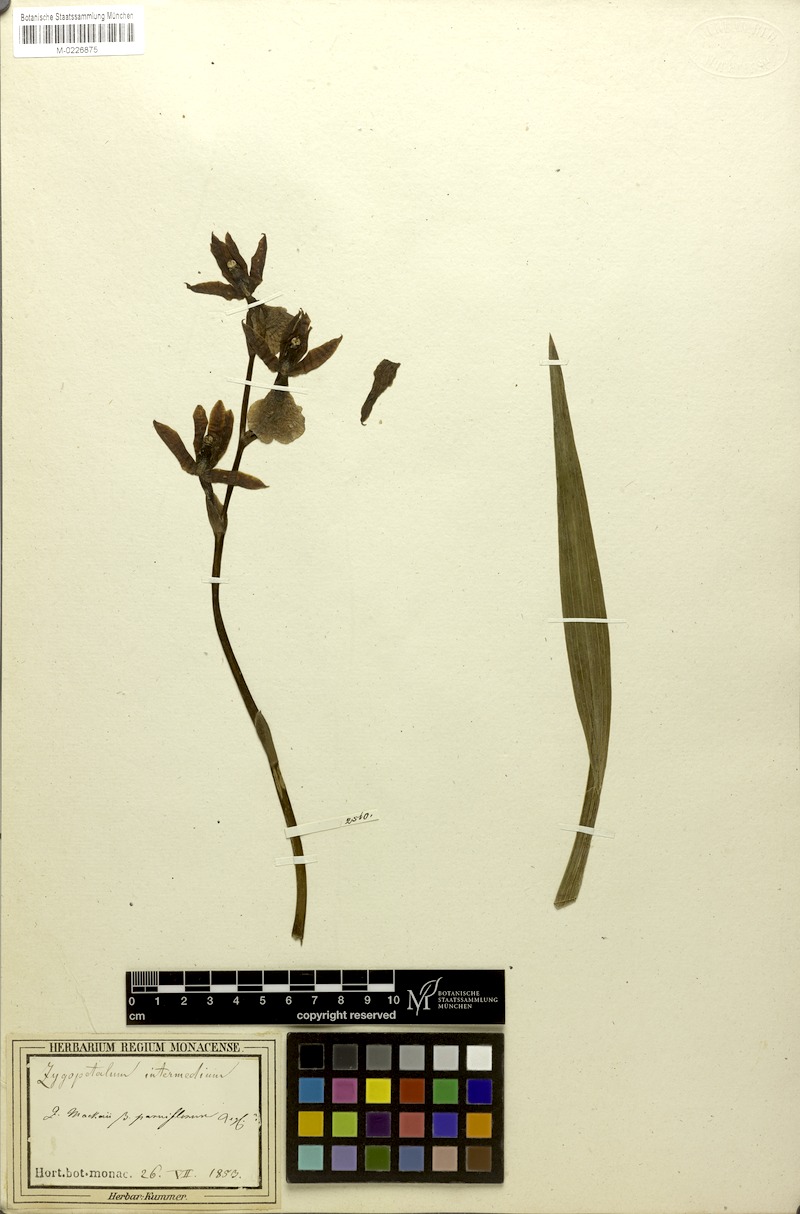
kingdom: Plantae
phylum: Tracheophyta
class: Liliopsida
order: Asparagales
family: Orchidaceae
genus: Zygopetalum
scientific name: Zygopetalum maculatum
